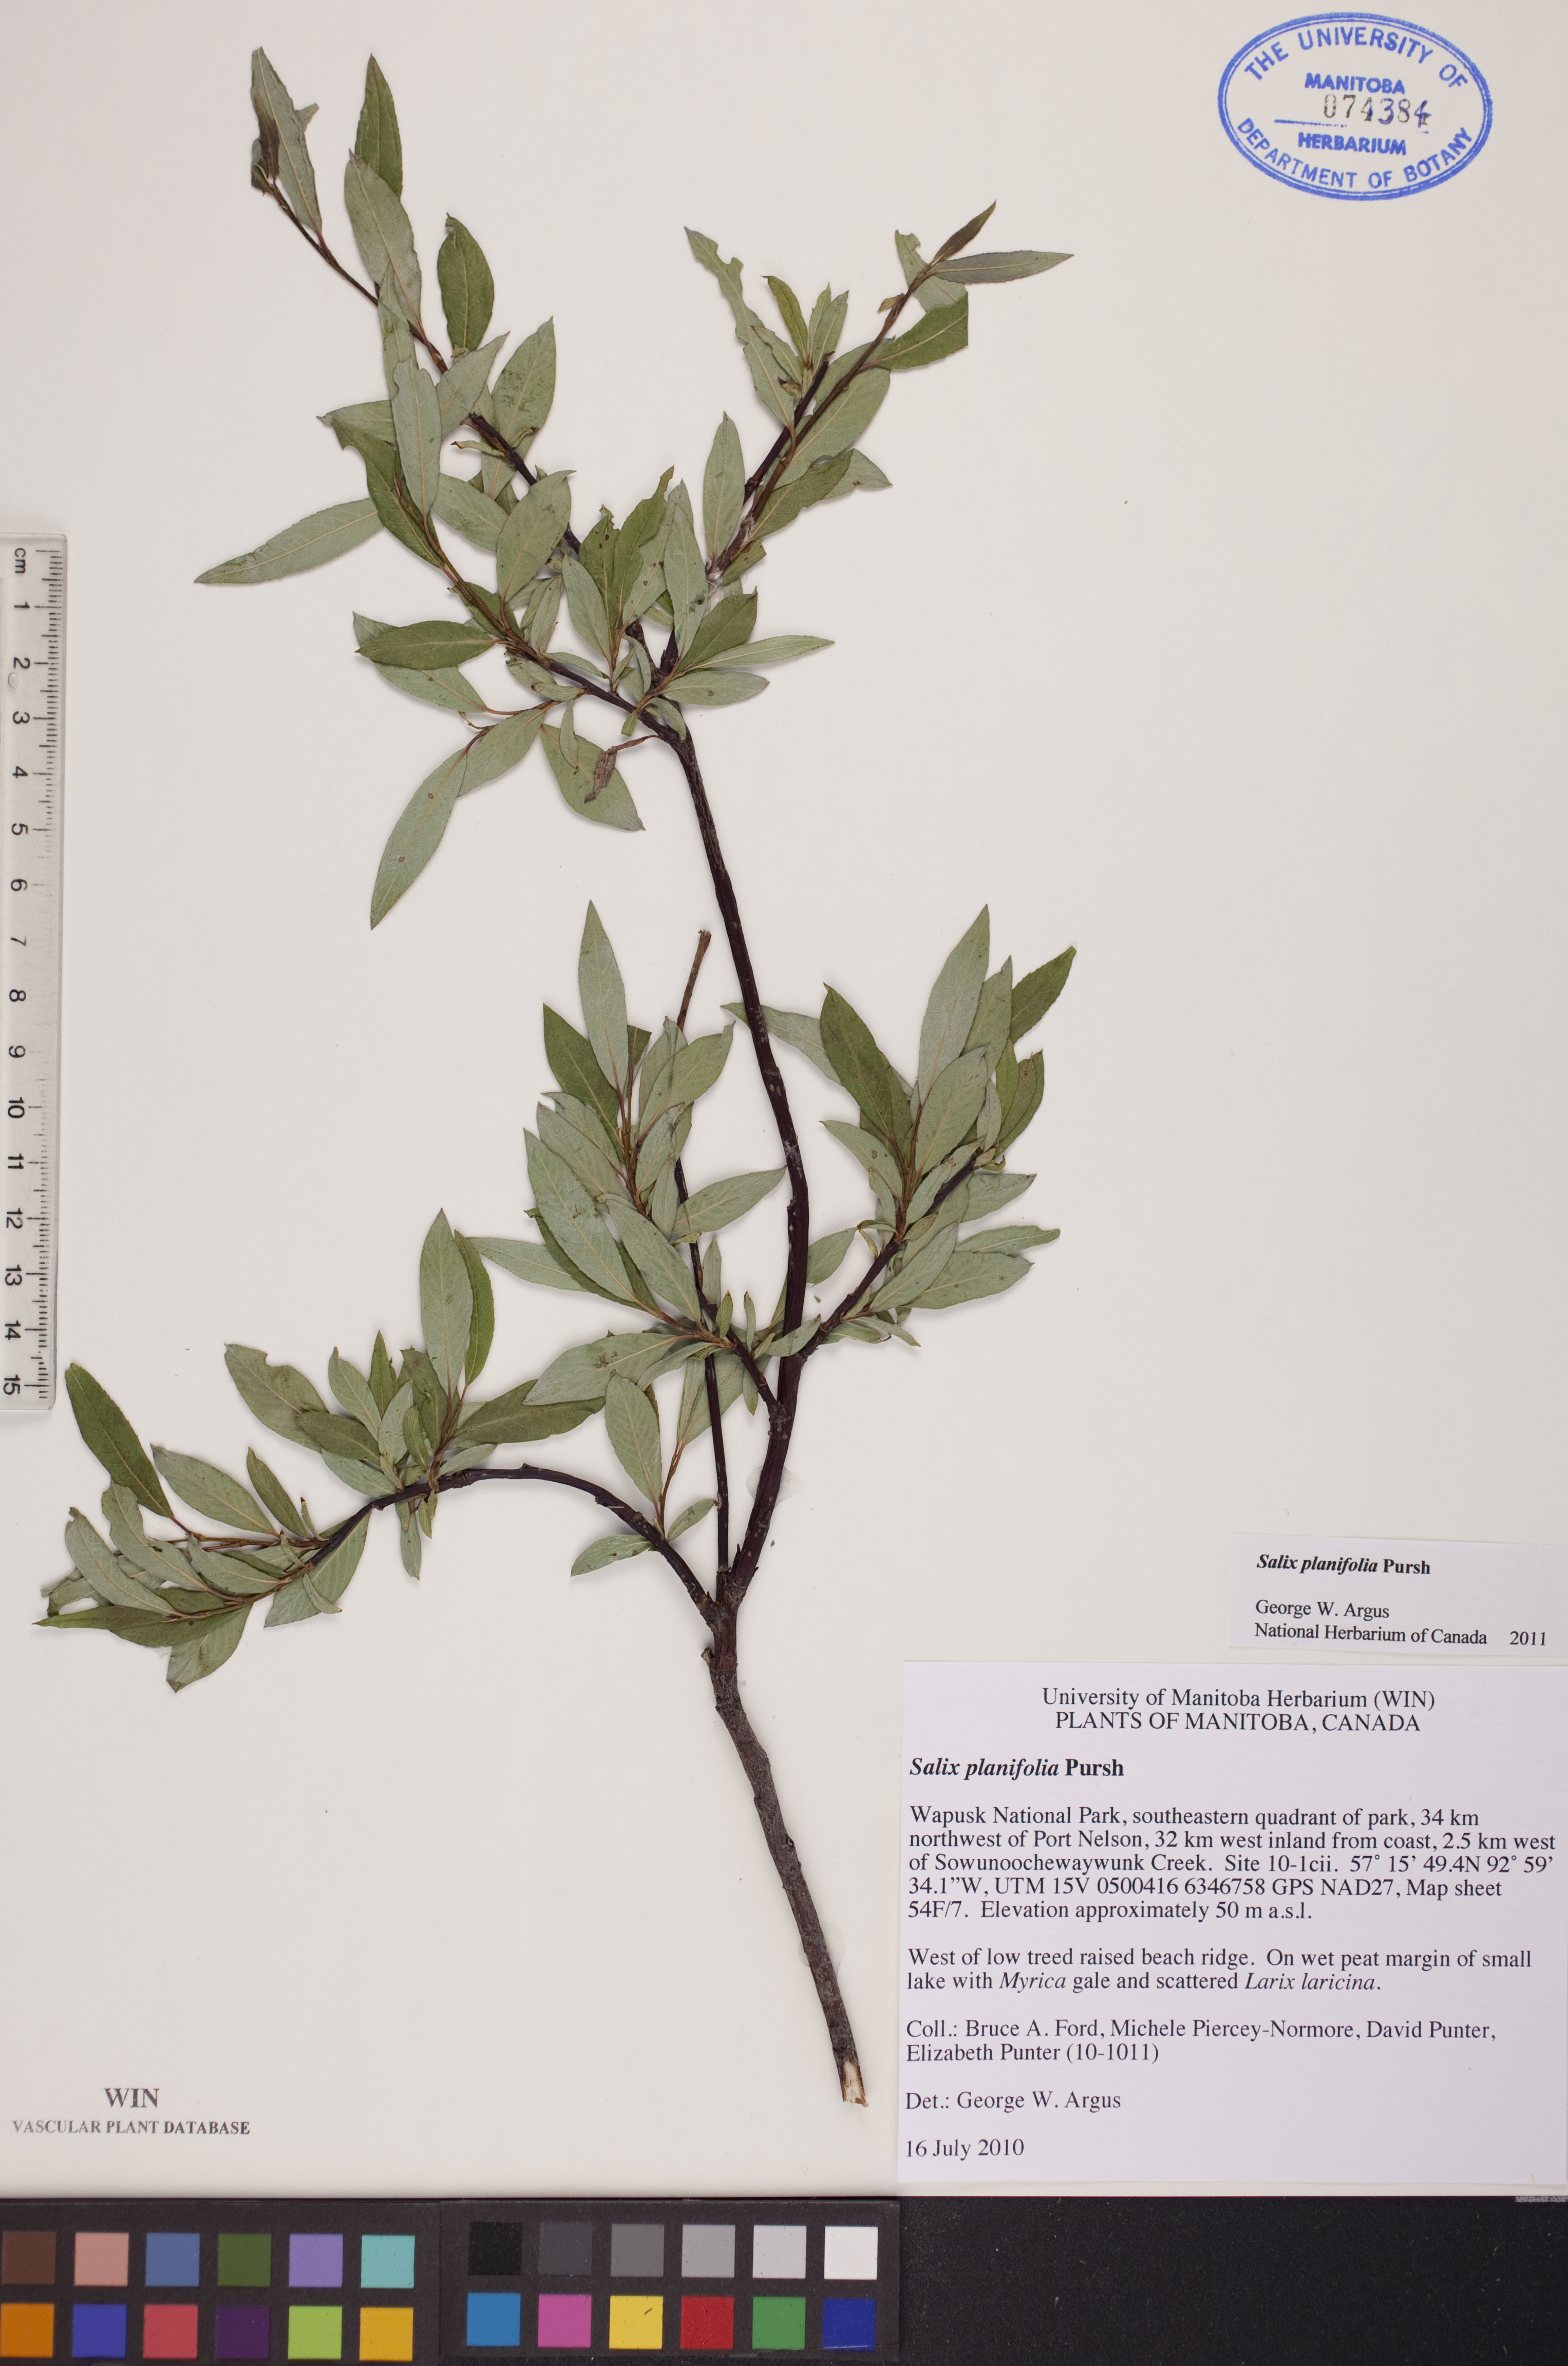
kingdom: Plantae
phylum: Tracheophyta
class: Magnoliopsida
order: Malpighiales
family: Salicaceae
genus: Salix
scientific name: Salix planifolia
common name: Mountain willow
